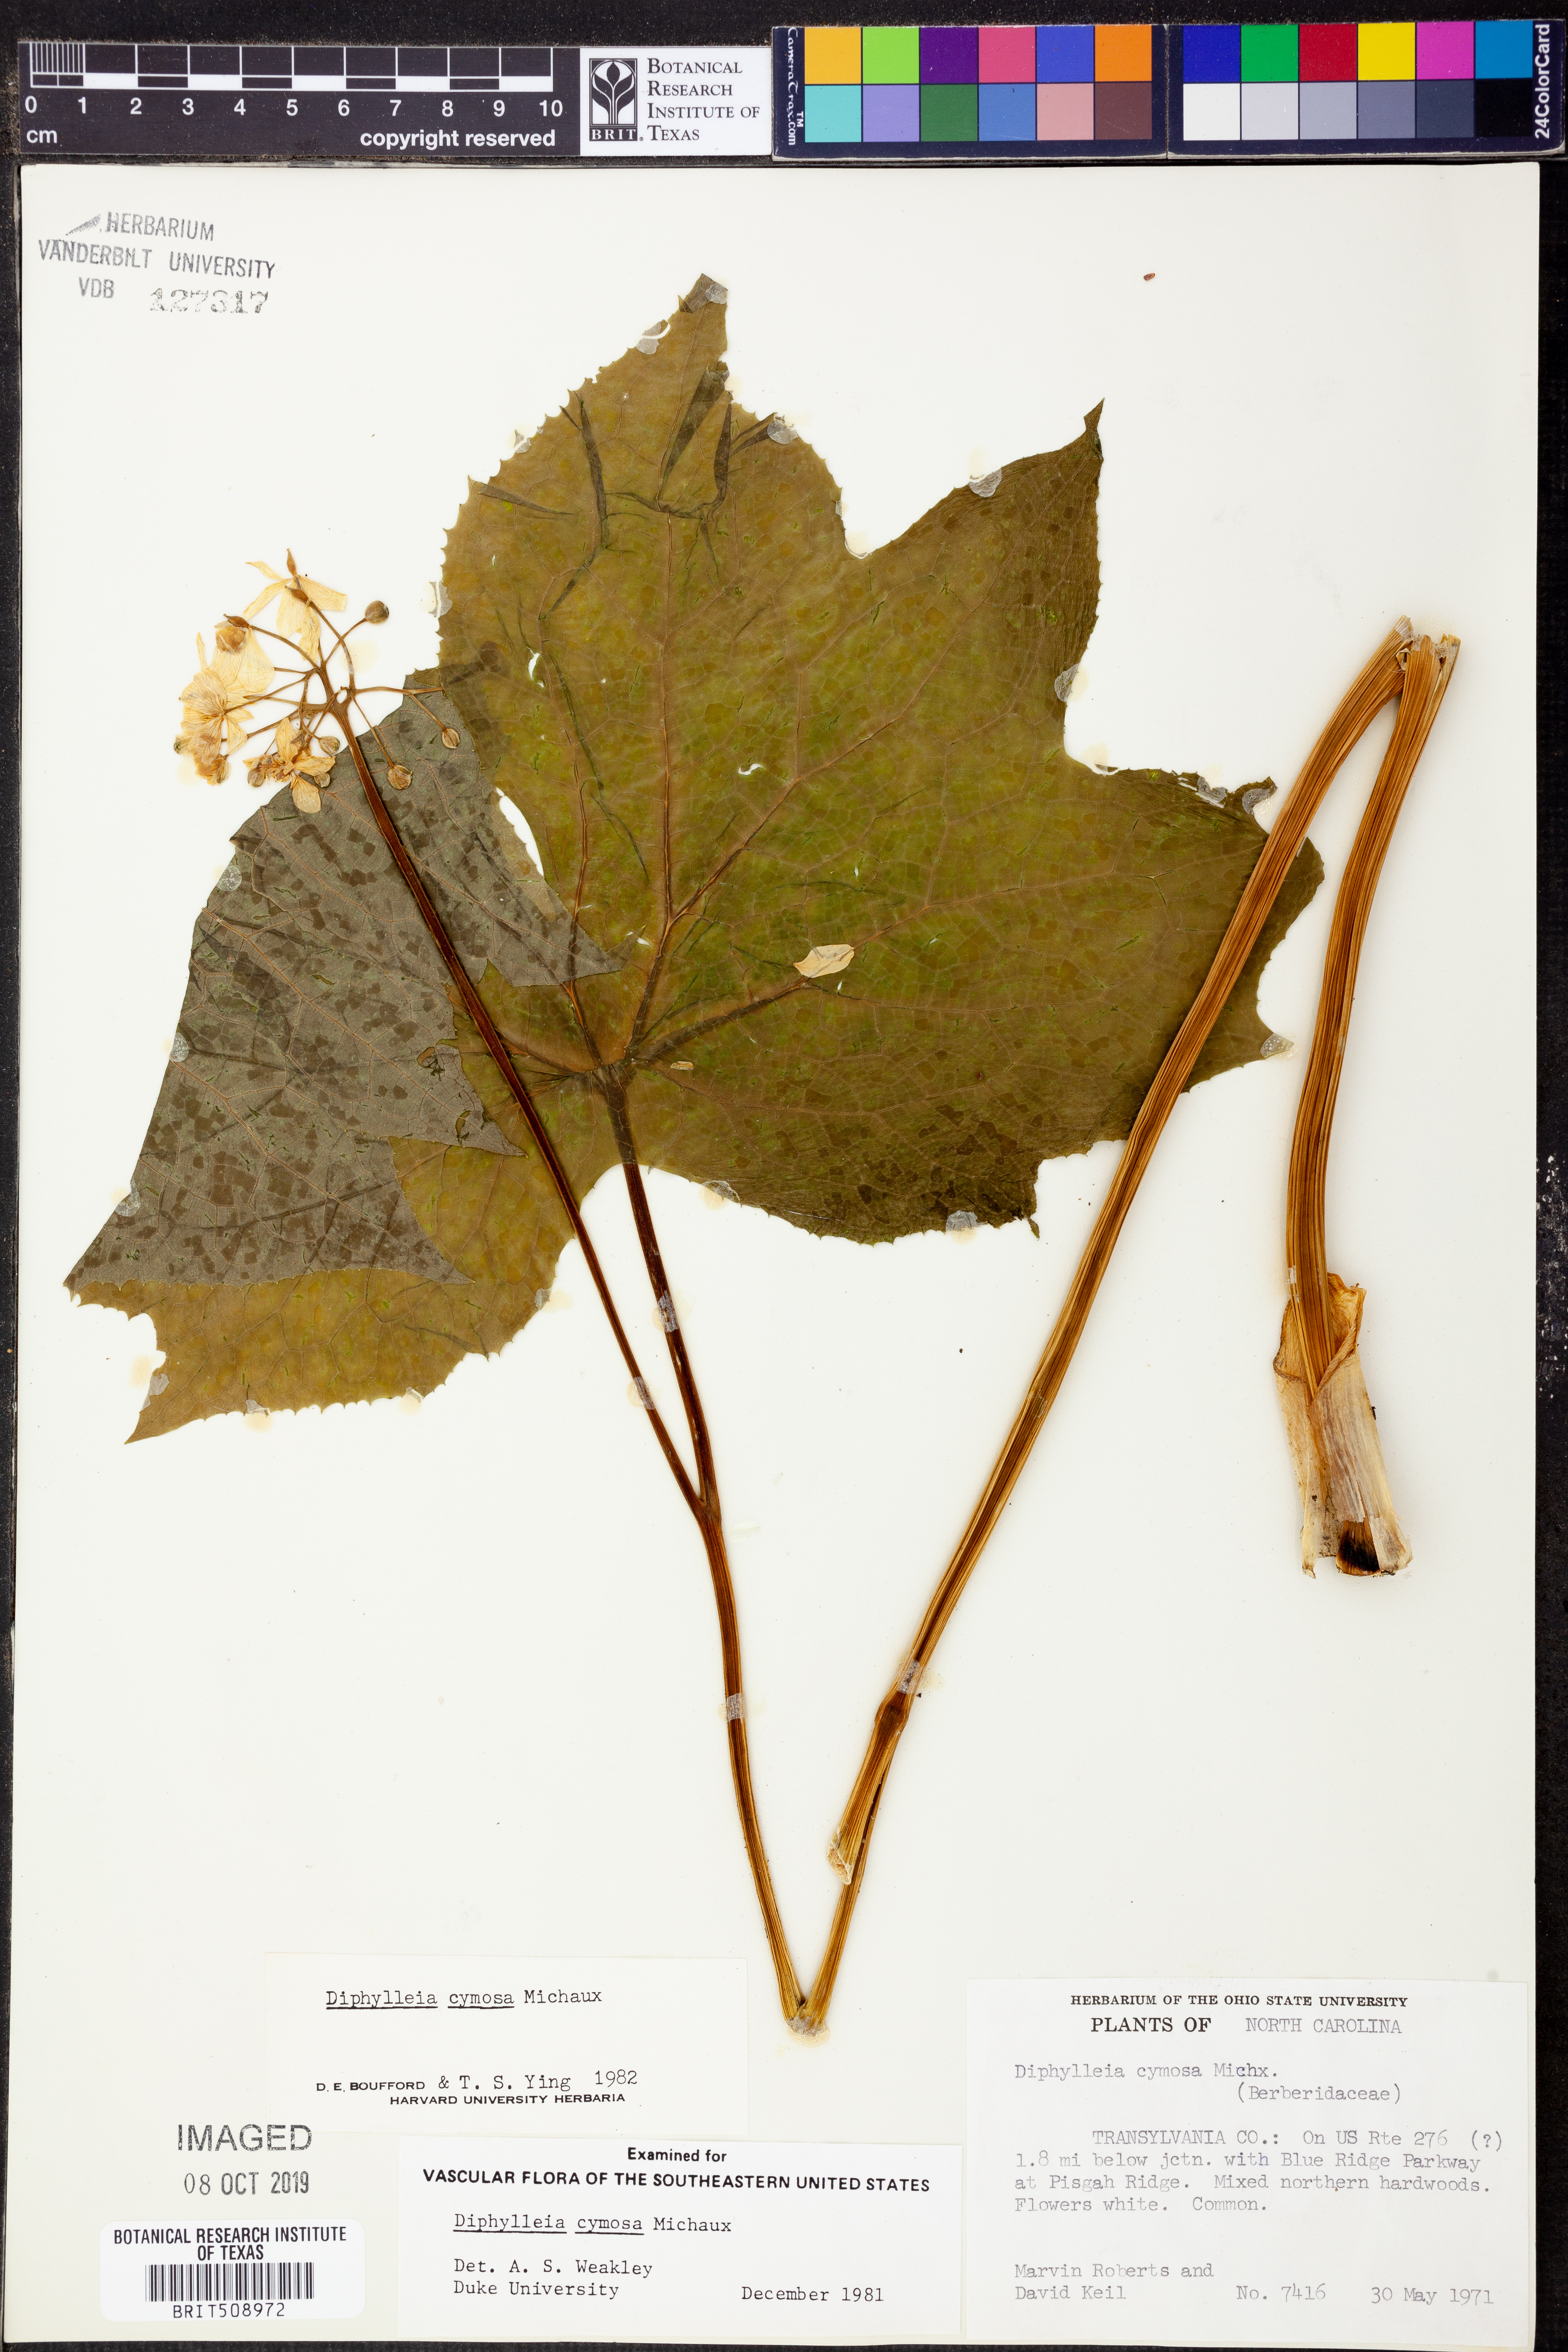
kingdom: Plantae
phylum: Tracheophyta
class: Magnoliopsida
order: Ranunculales
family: Berberidaceae
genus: Diphylleia
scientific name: Diphylleia cymosa
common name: Umbrella-leaf
